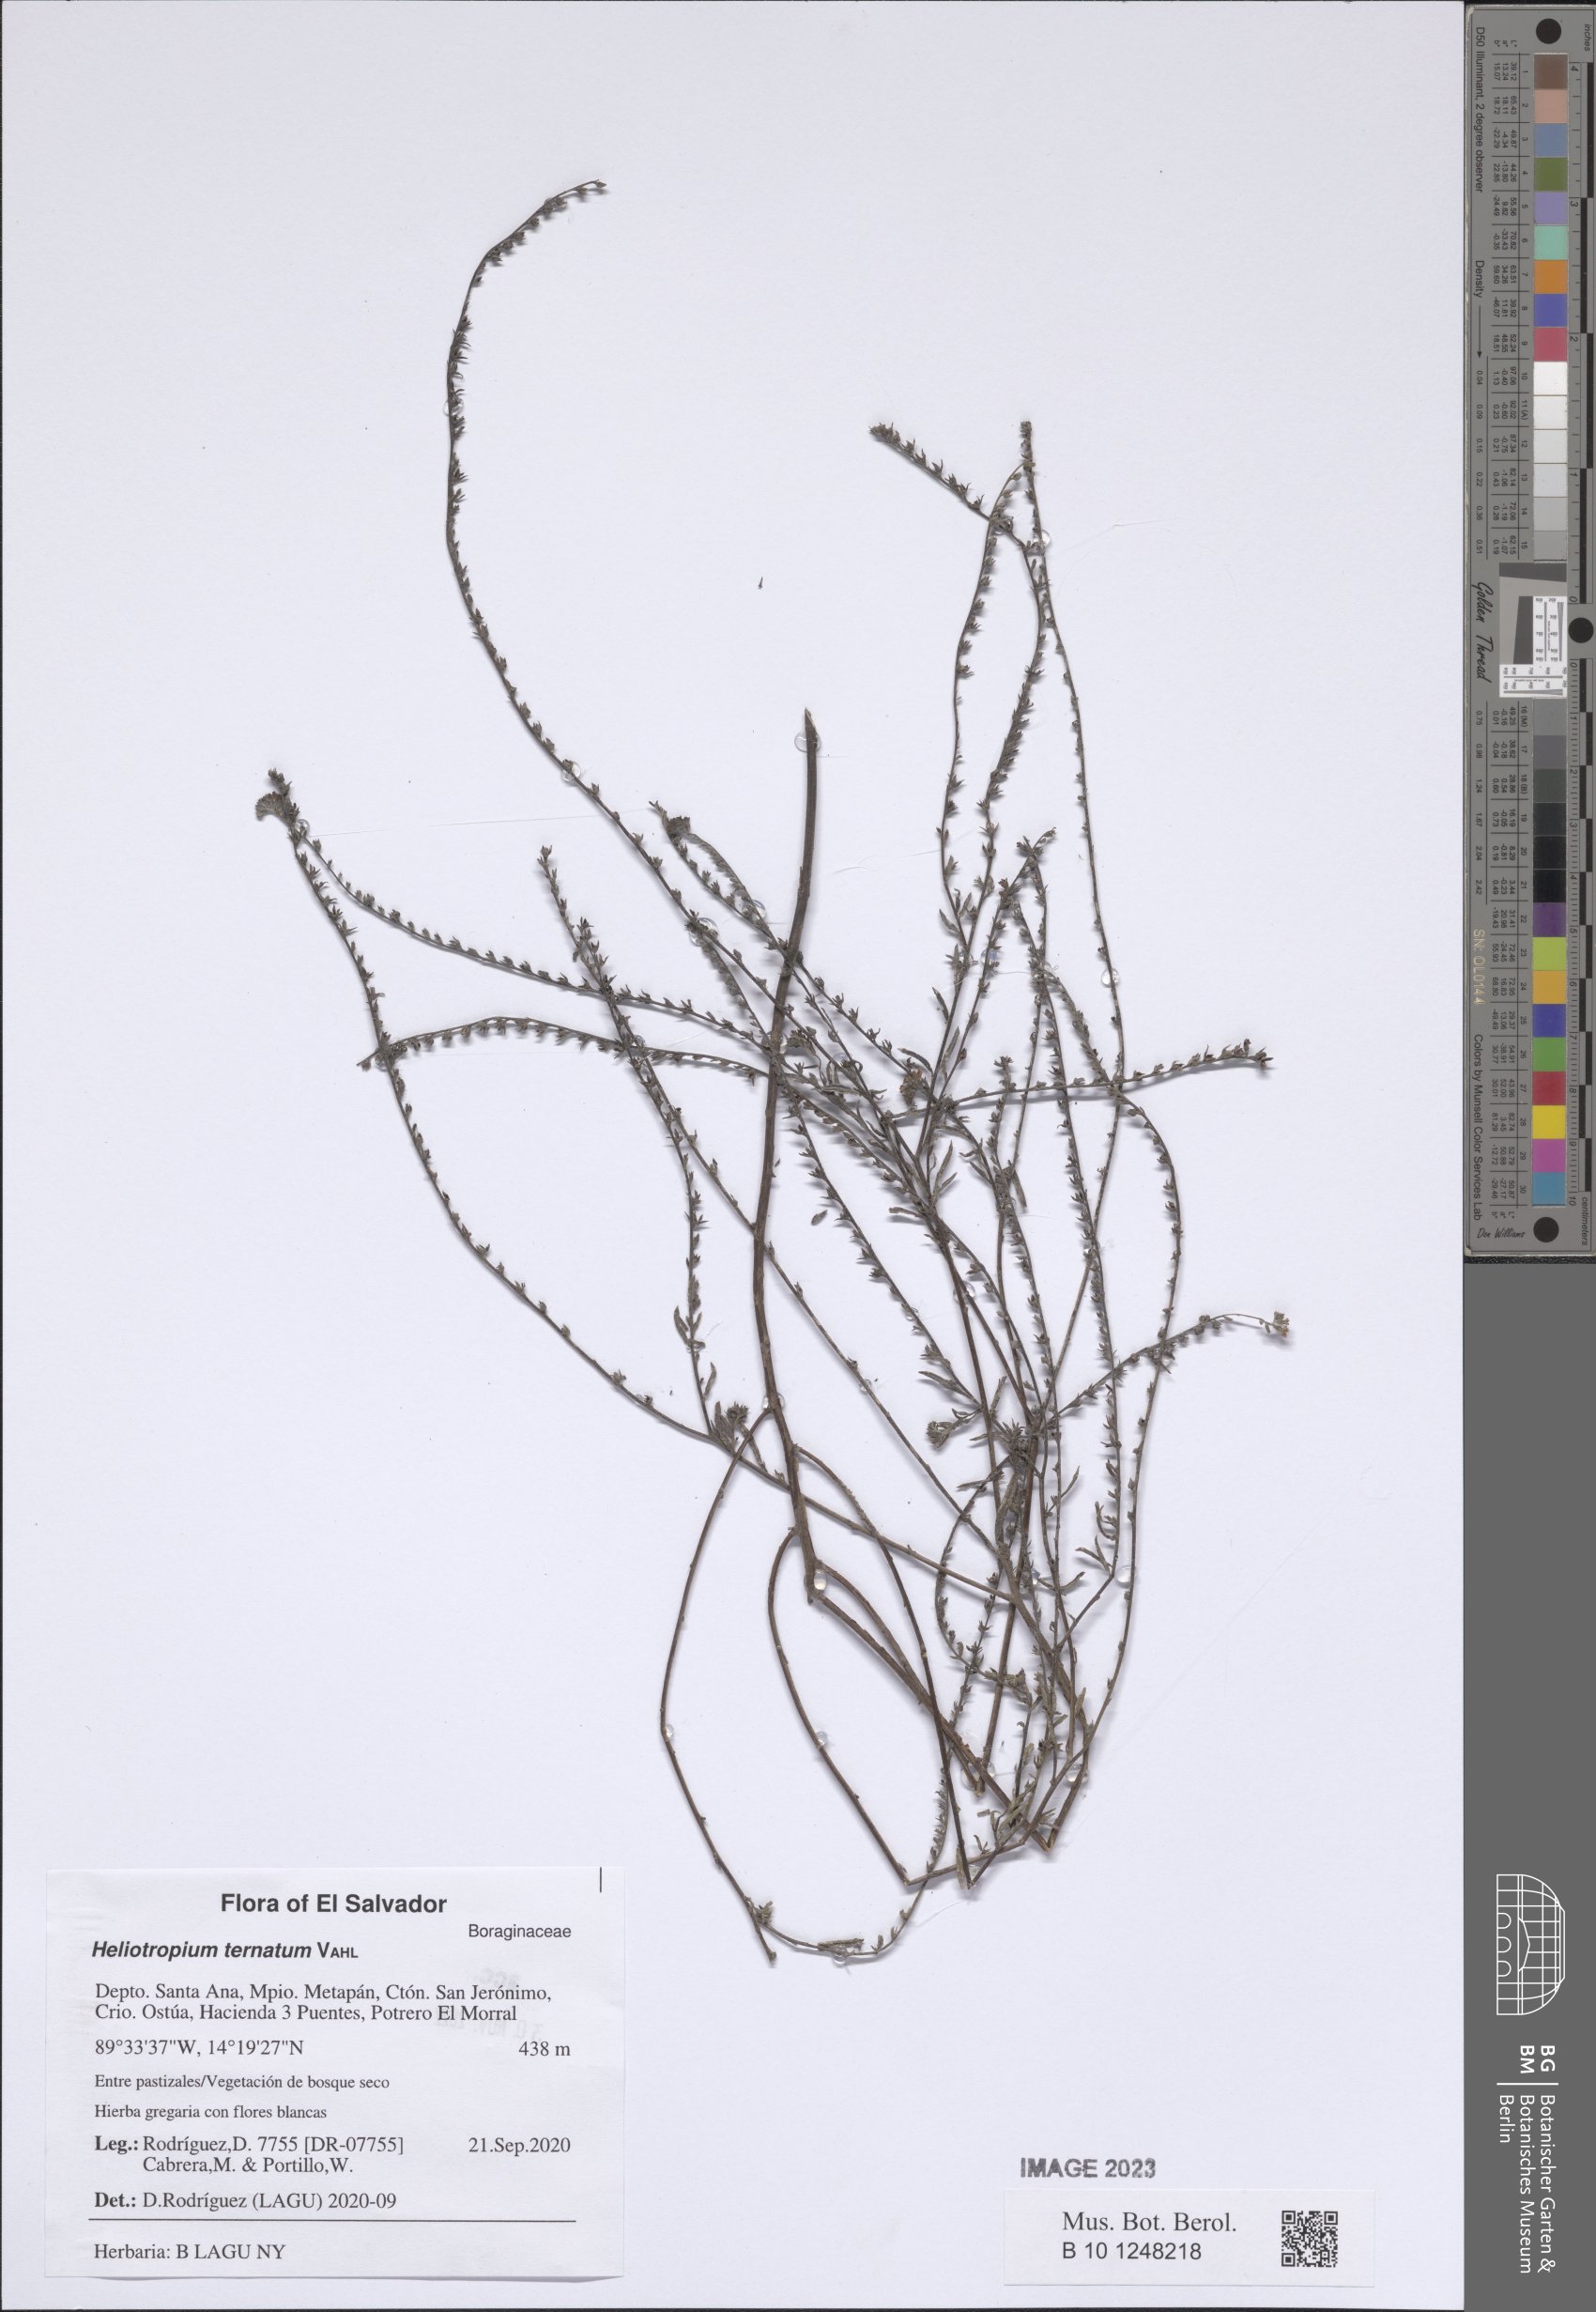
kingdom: Plantae
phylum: Tracheophyta
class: Magnoliopsida
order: Boraginales
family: Heliotropiaceae
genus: Euploca
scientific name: Euploca humilis
